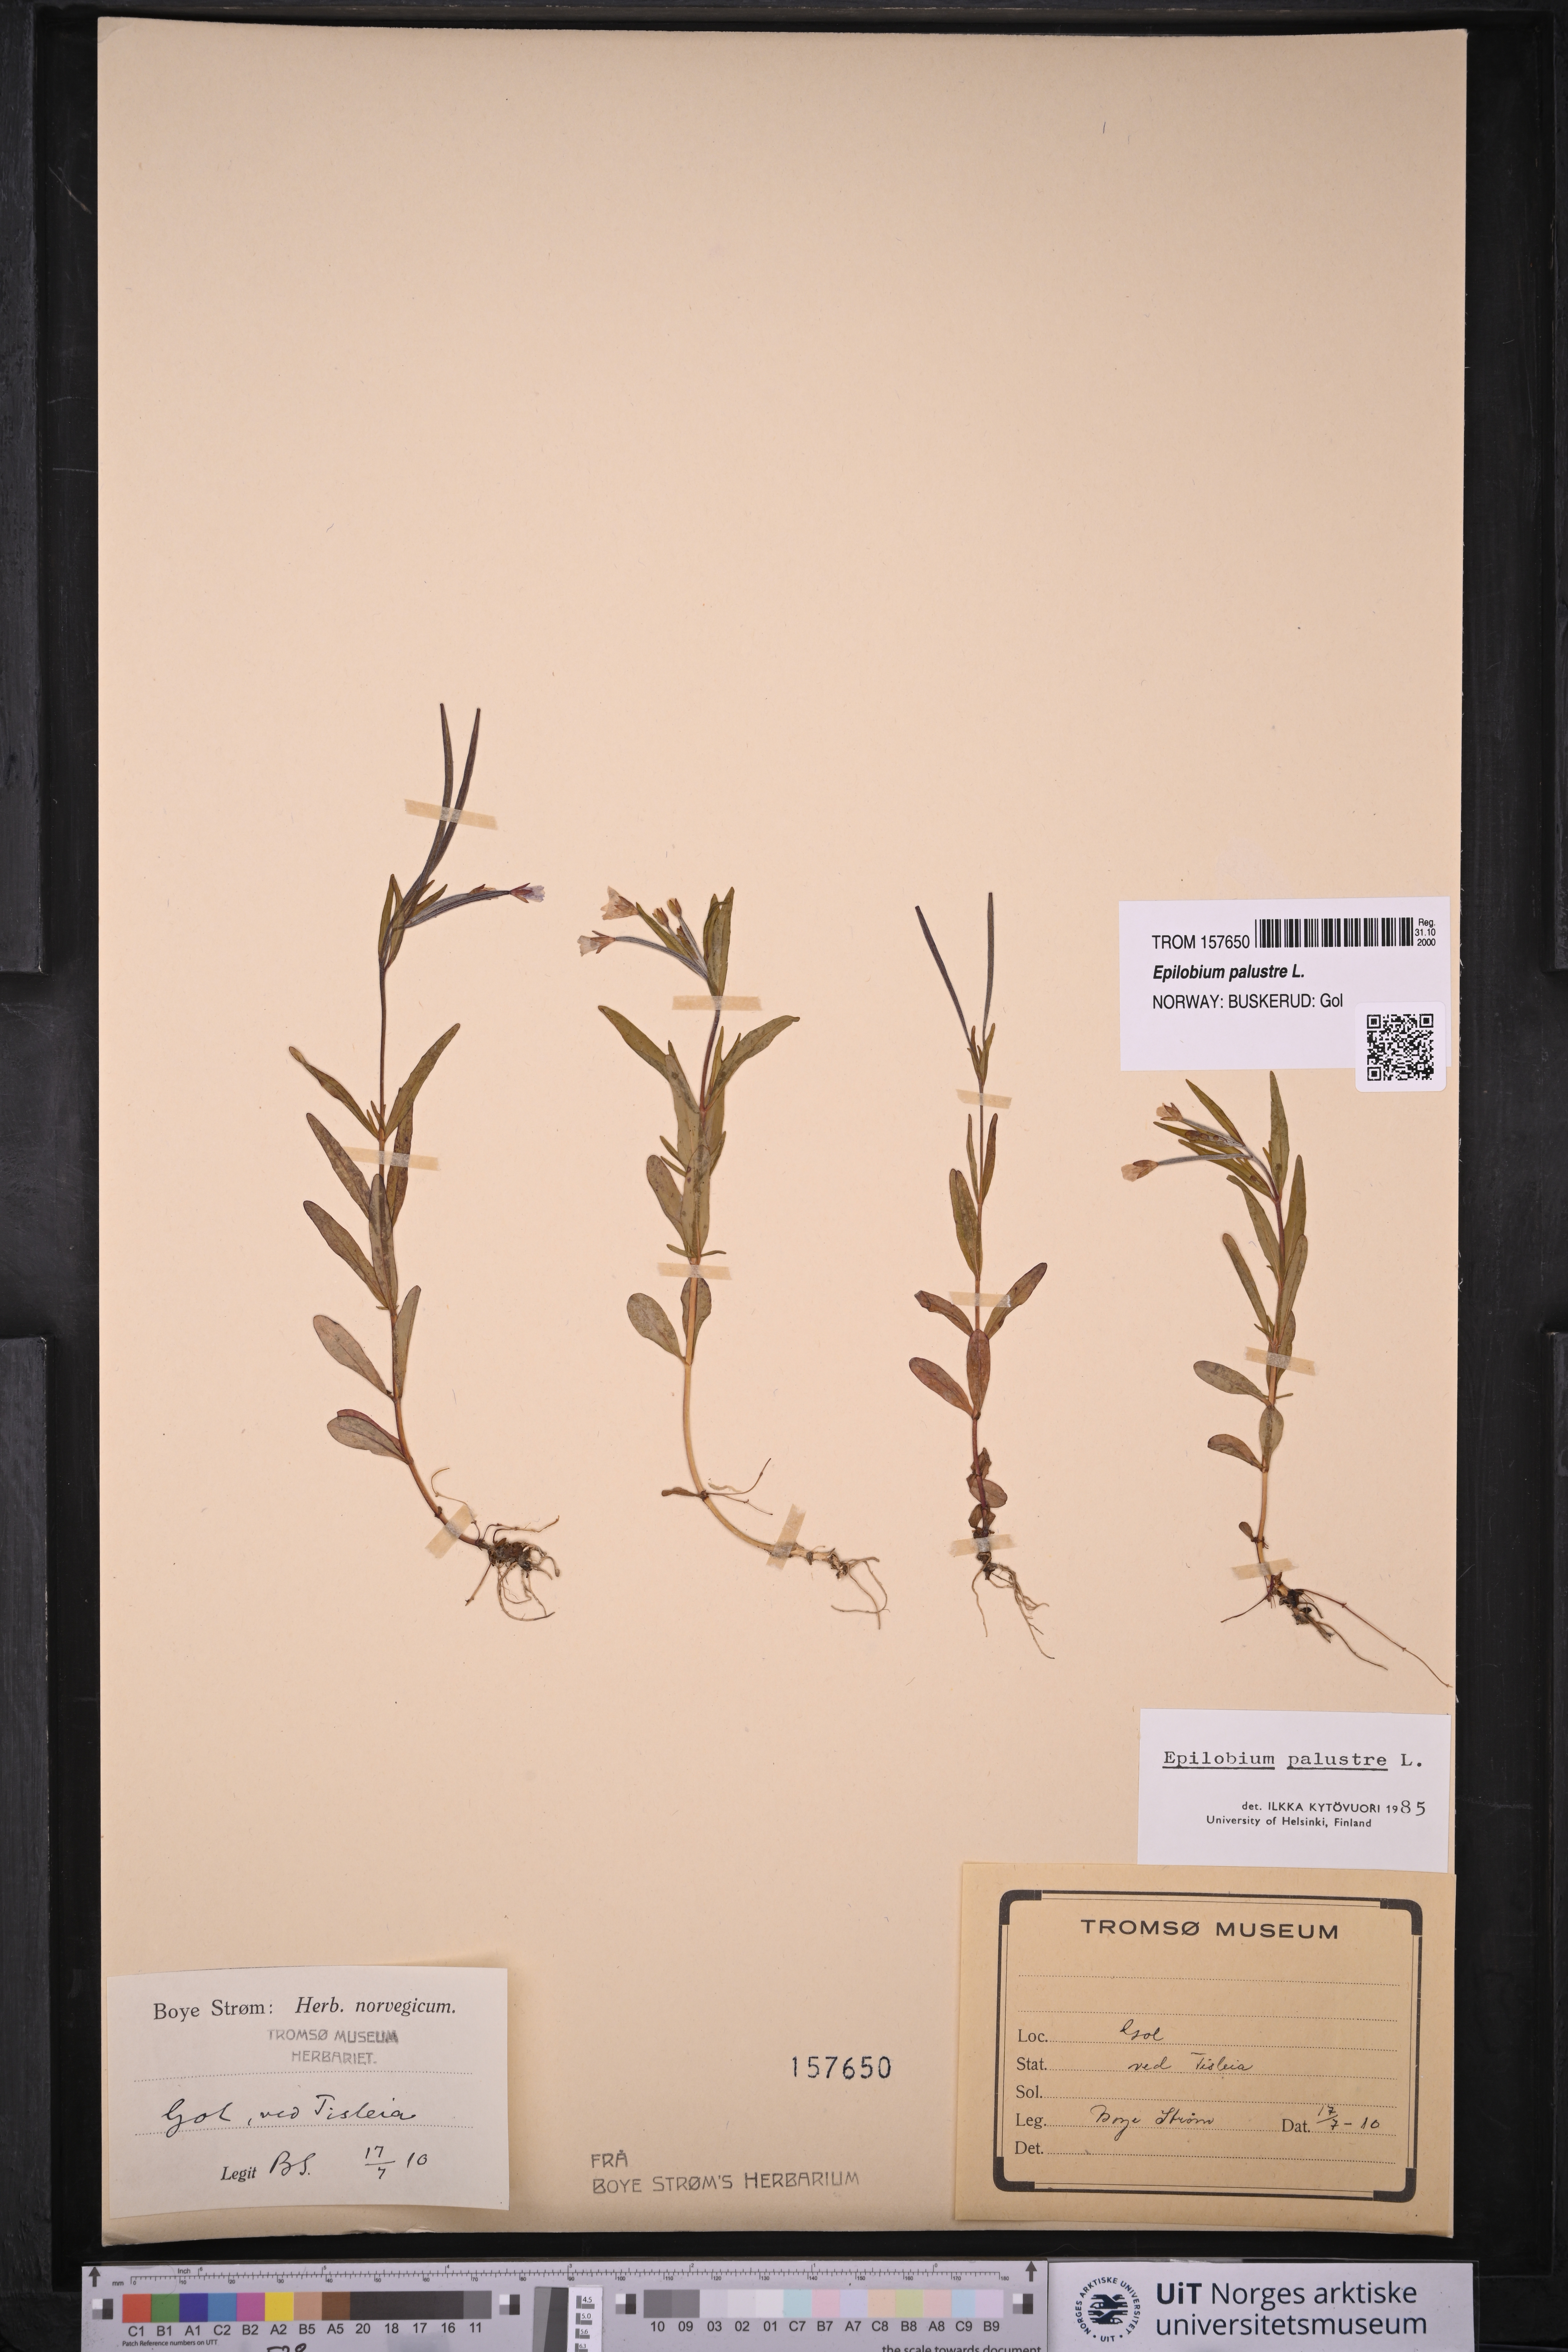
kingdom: Plantae
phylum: Tracheophyta
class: Magnoliopsida
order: Myrtales
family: Onagraceae
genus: Epilobium
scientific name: Epilobium palustre
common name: Marsh willowherb
